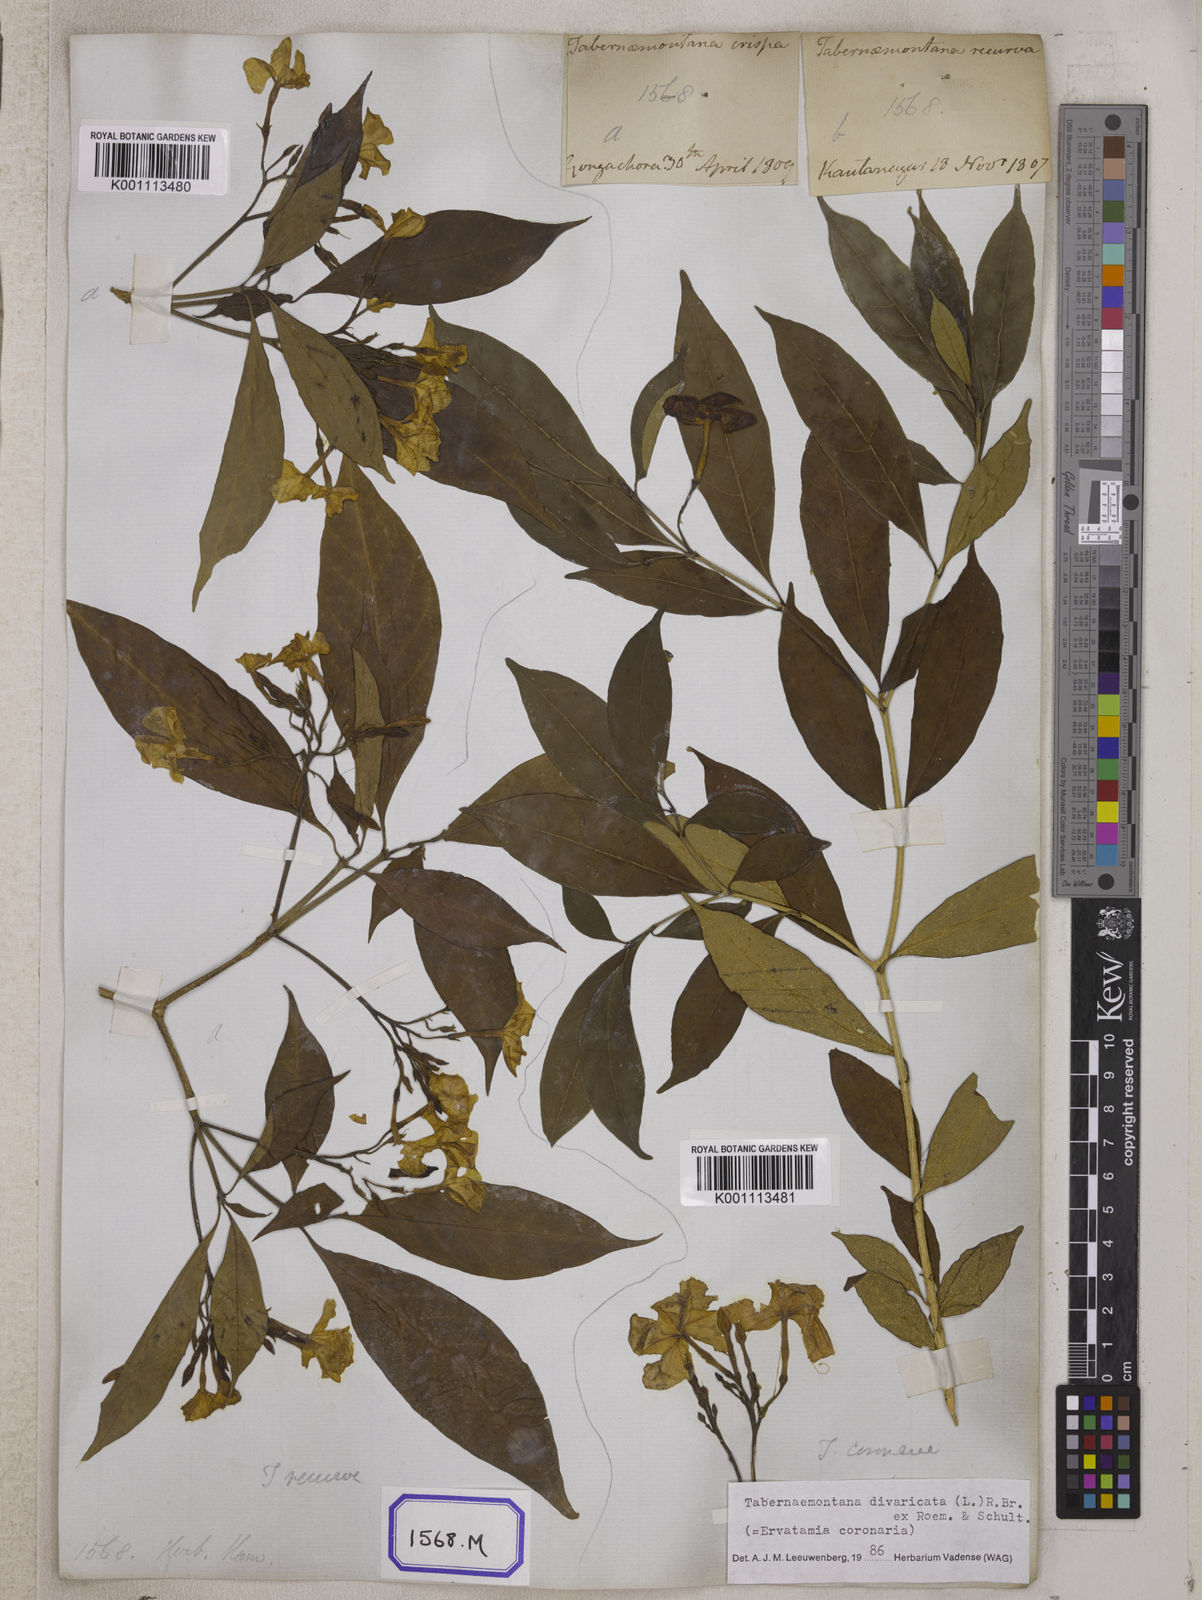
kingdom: Plantae
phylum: Tracheophyta
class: Magnoliopsida
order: Gentianales
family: Apocynaceae
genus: Tabernaemontana
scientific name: Tabernaemontana divaricata
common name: Pinwheelflower
